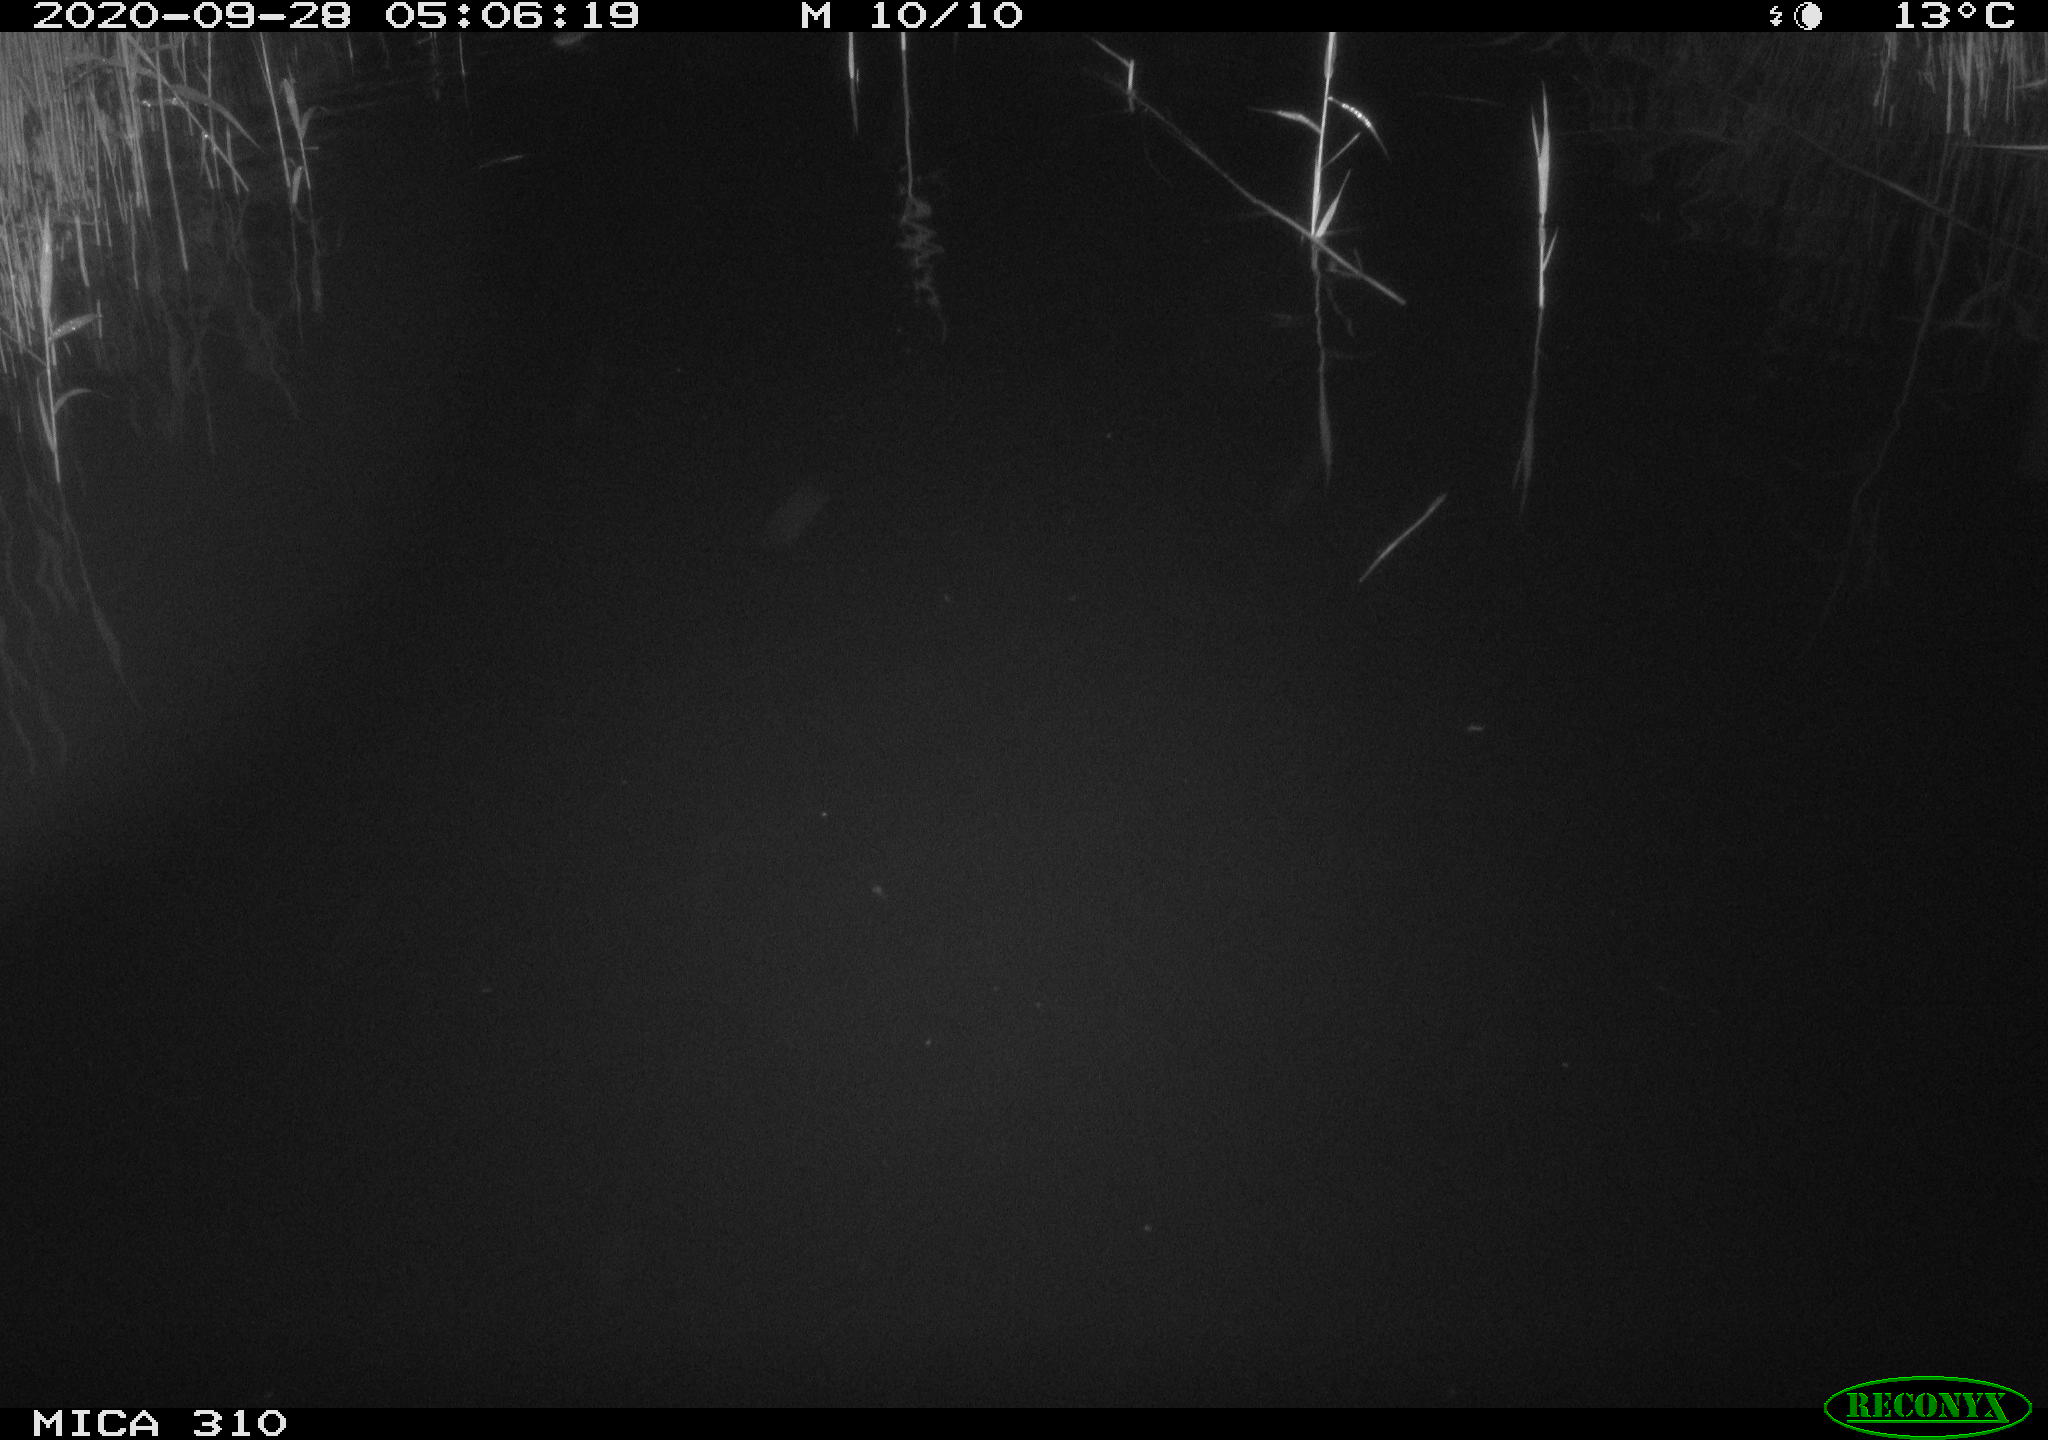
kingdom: Animalia
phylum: Chordata
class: Mammalia
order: Rodentia
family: Cricetidae
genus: Ondatra
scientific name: Ondatra zibethicus
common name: Muskrat
